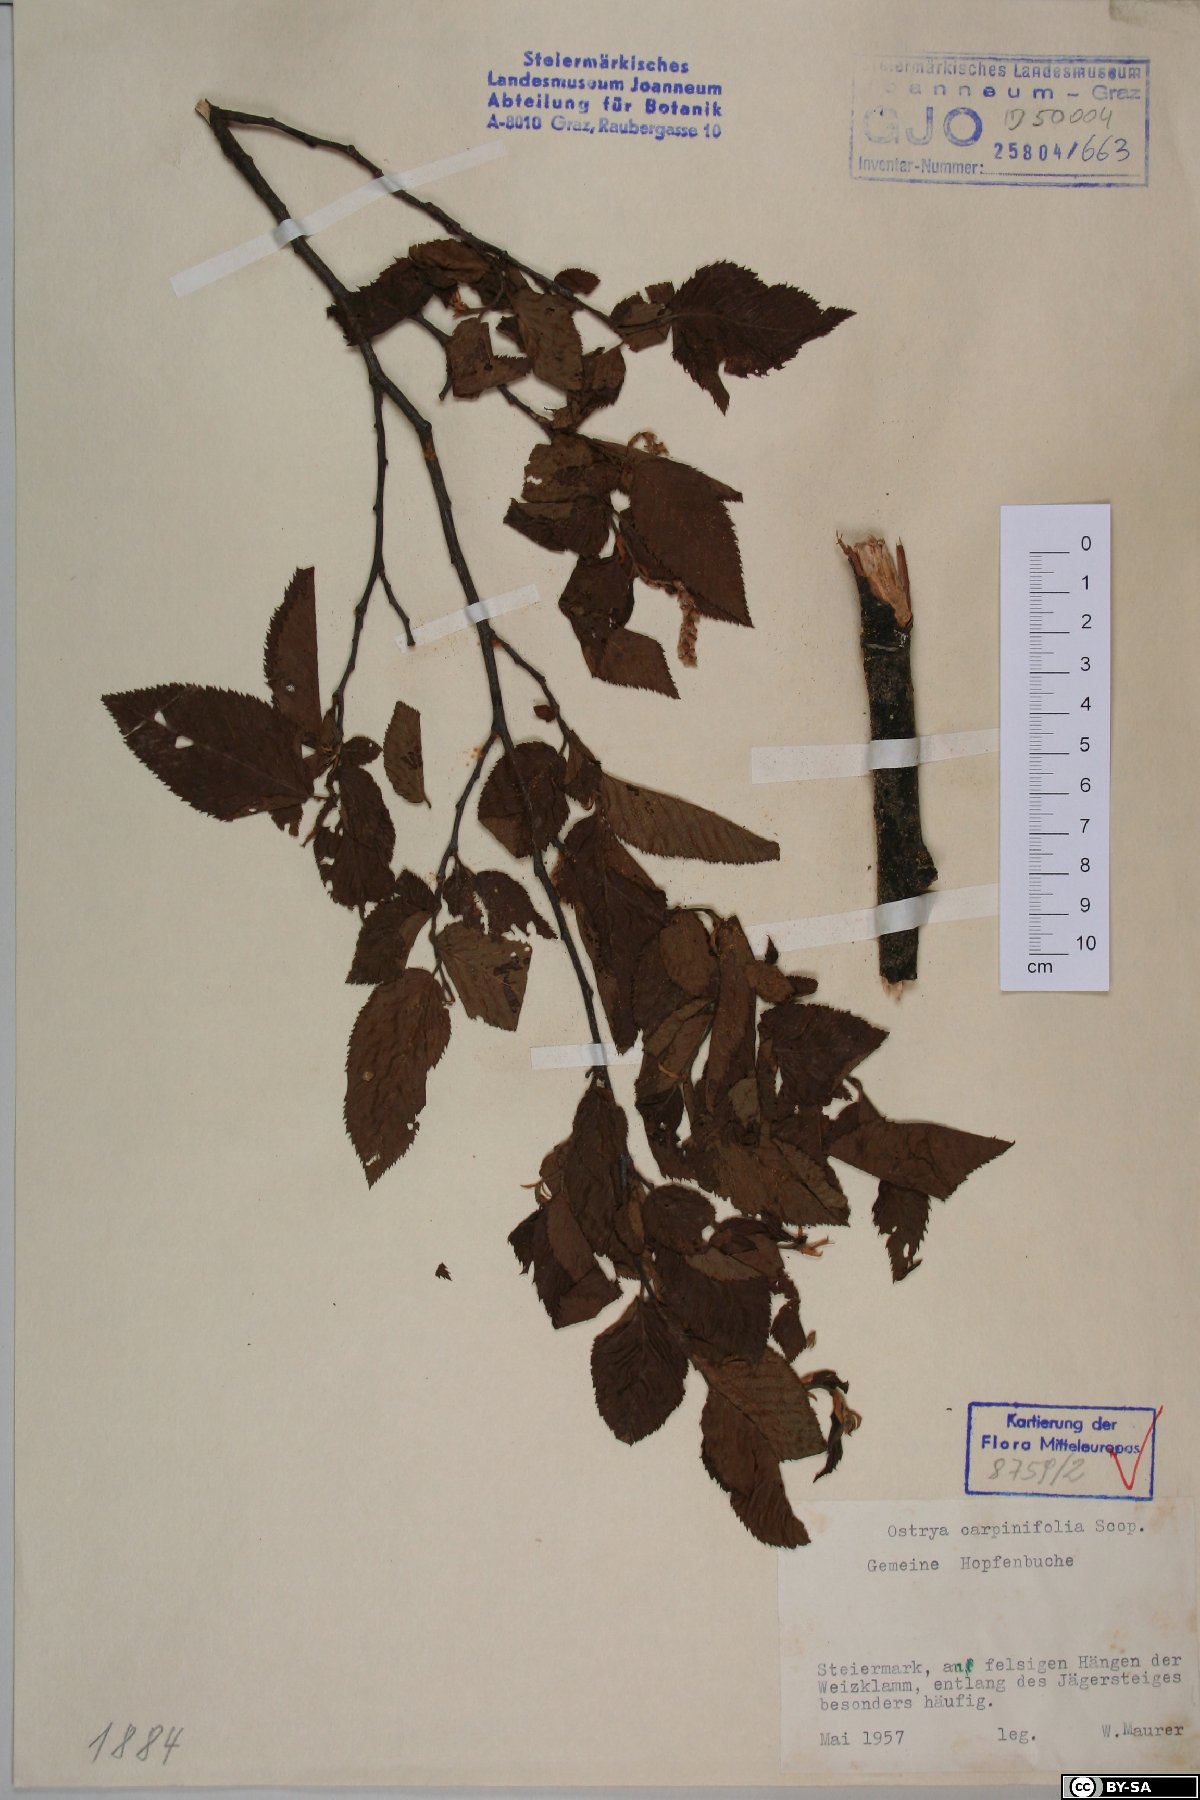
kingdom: Plantae
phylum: Tracheophyta
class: Magnoliopsida
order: Fagales
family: Betulaceae
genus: Ostrya
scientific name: Ostrya carpinifolia
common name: European hop-hornbeam
